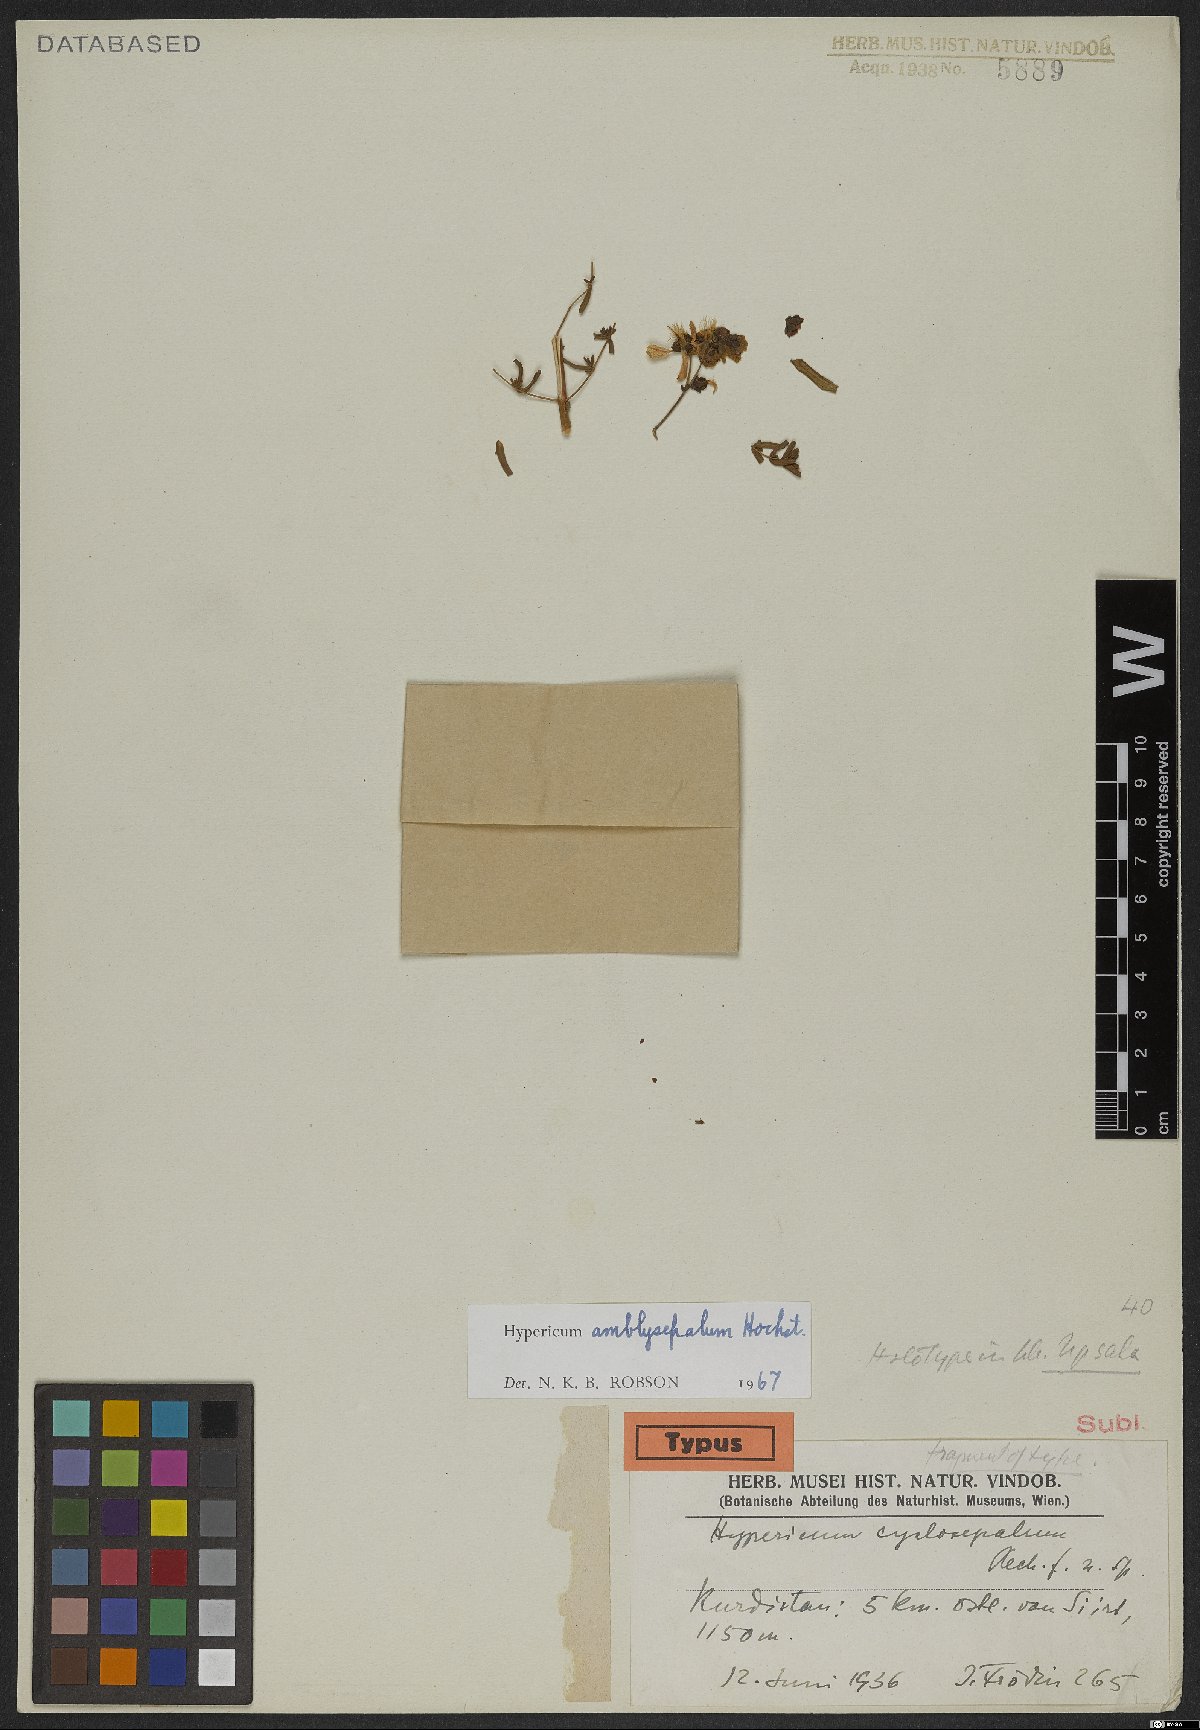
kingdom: Plantae
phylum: Tracheophyta
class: Magnoliopsida
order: Malpighiales
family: Hypericaceae
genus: Hypericum
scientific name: Hypericum amblysepalum
